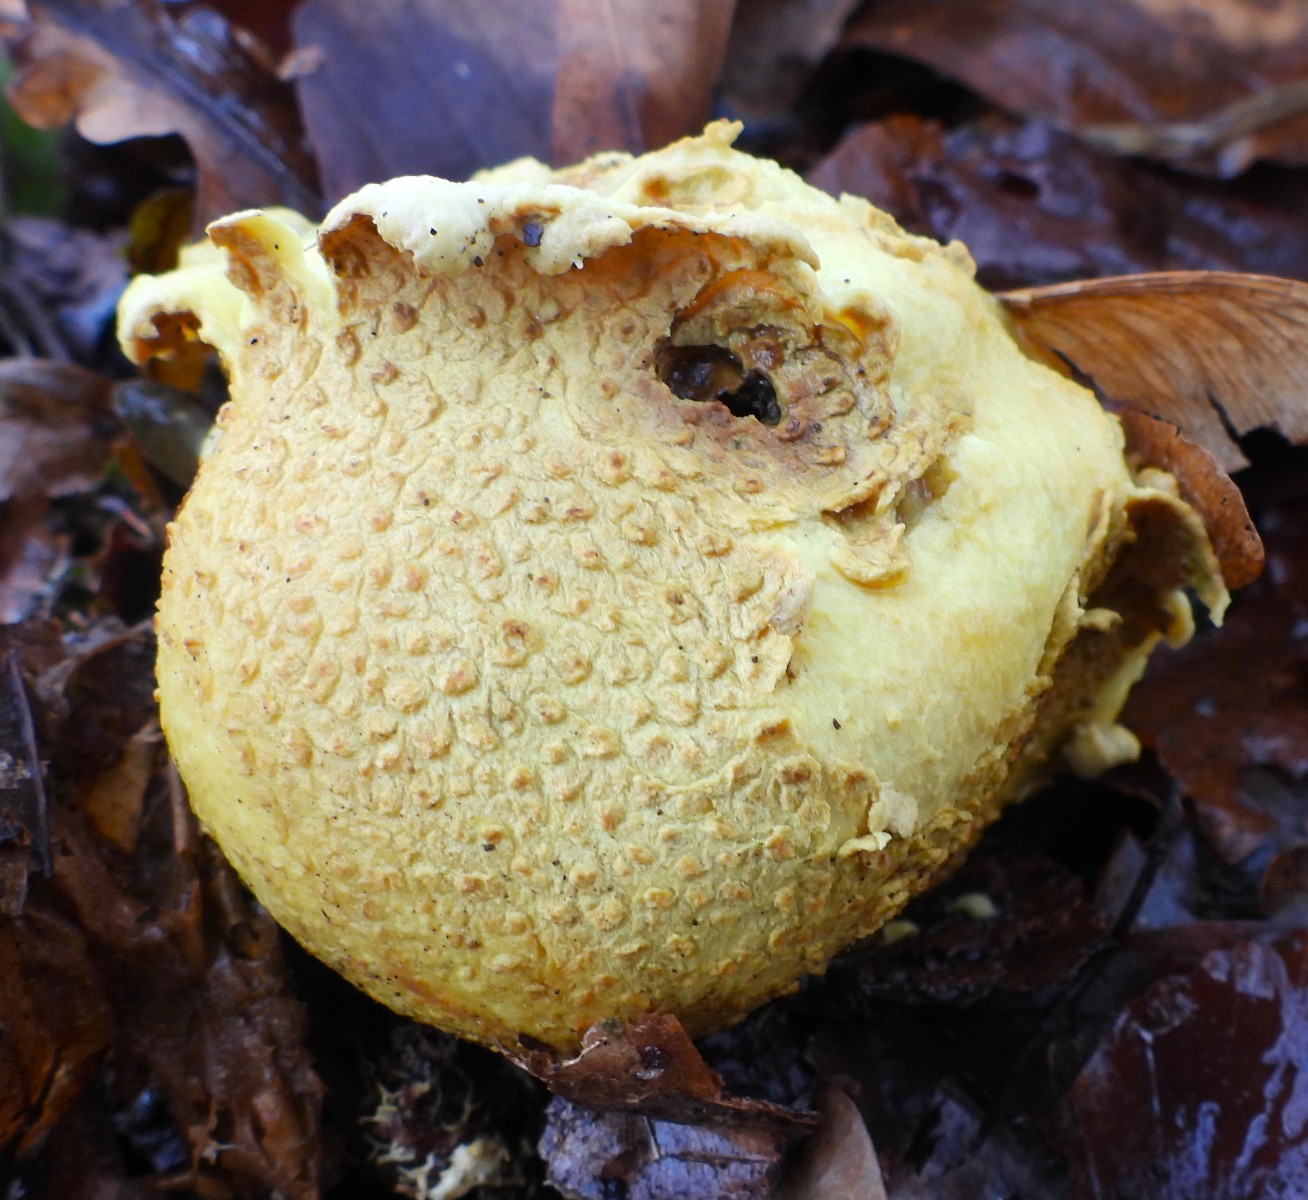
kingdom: Fungi
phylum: Basidiomycota
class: Agaricomycetes
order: Boletales
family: Sclerodermataceae
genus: Scleroderma
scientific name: Scleroderma citrinum
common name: almindelig bruskbold
